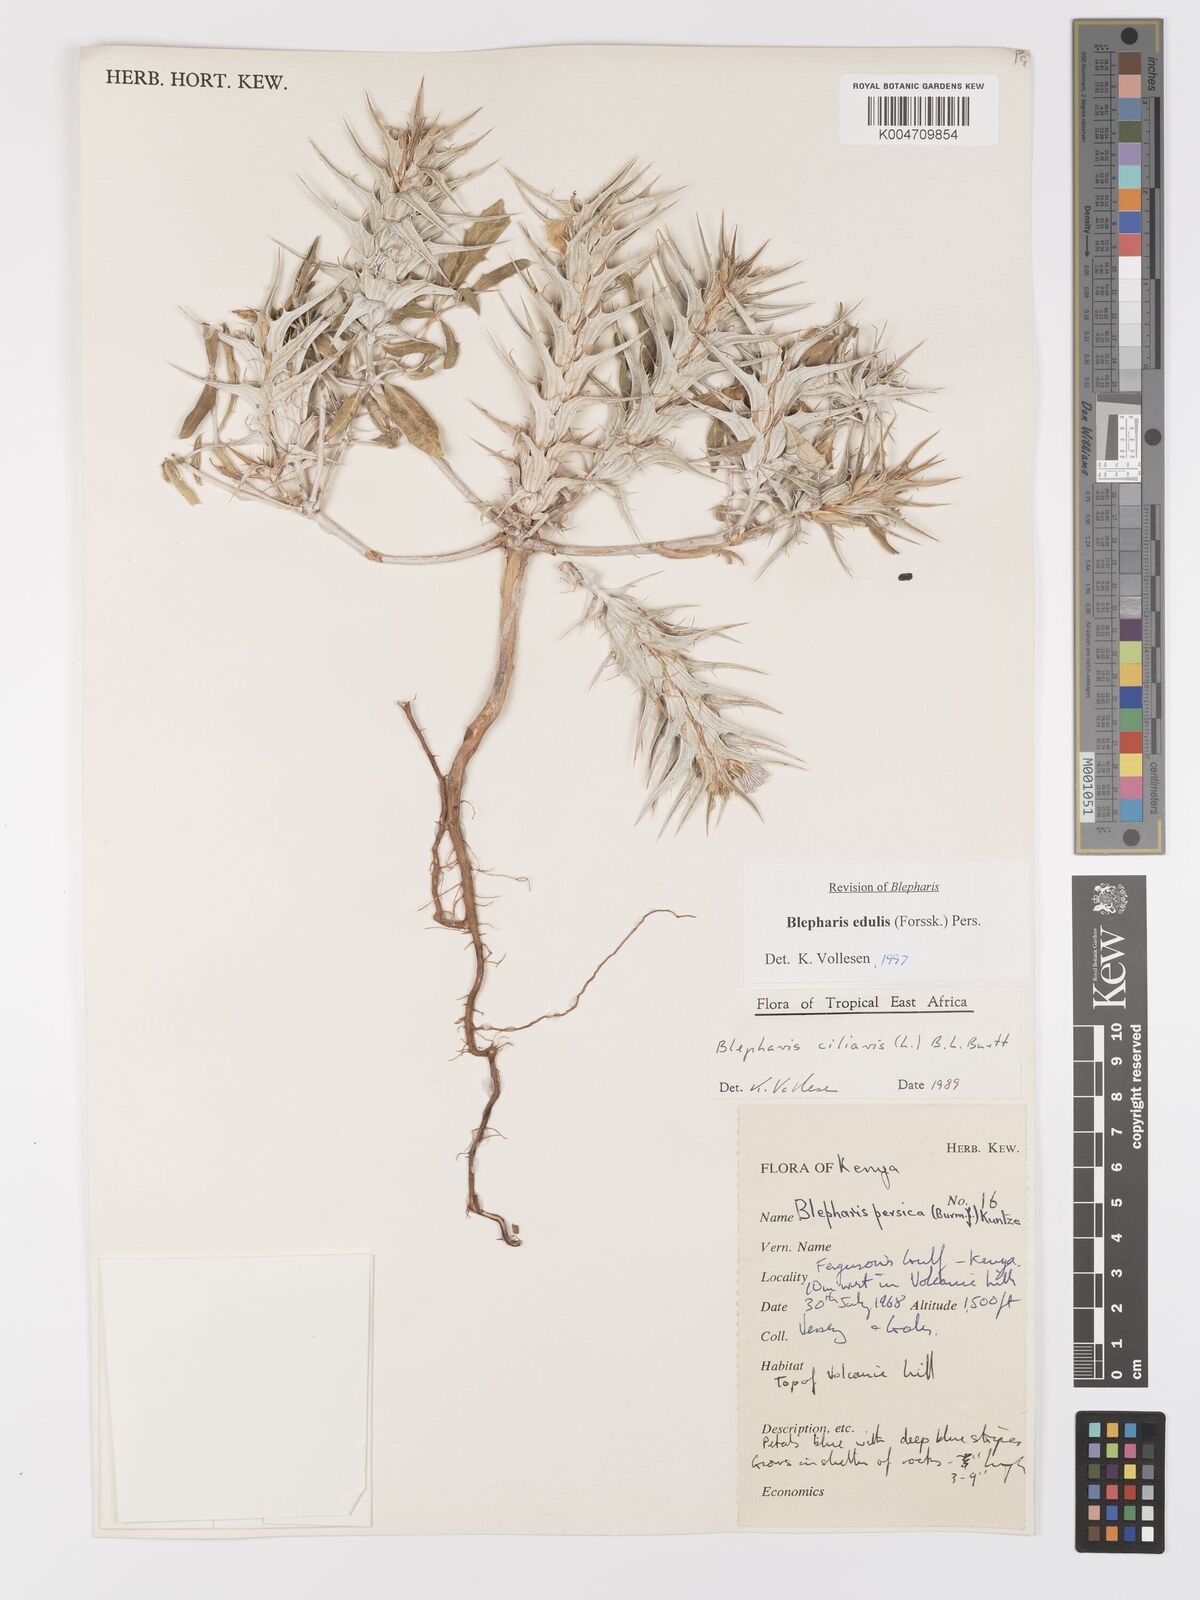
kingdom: Plantae
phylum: Tracheophyta
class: Magnoliopsida
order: Lamiales
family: Acanthaceae
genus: Blepharis
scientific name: Blepharis edulis
